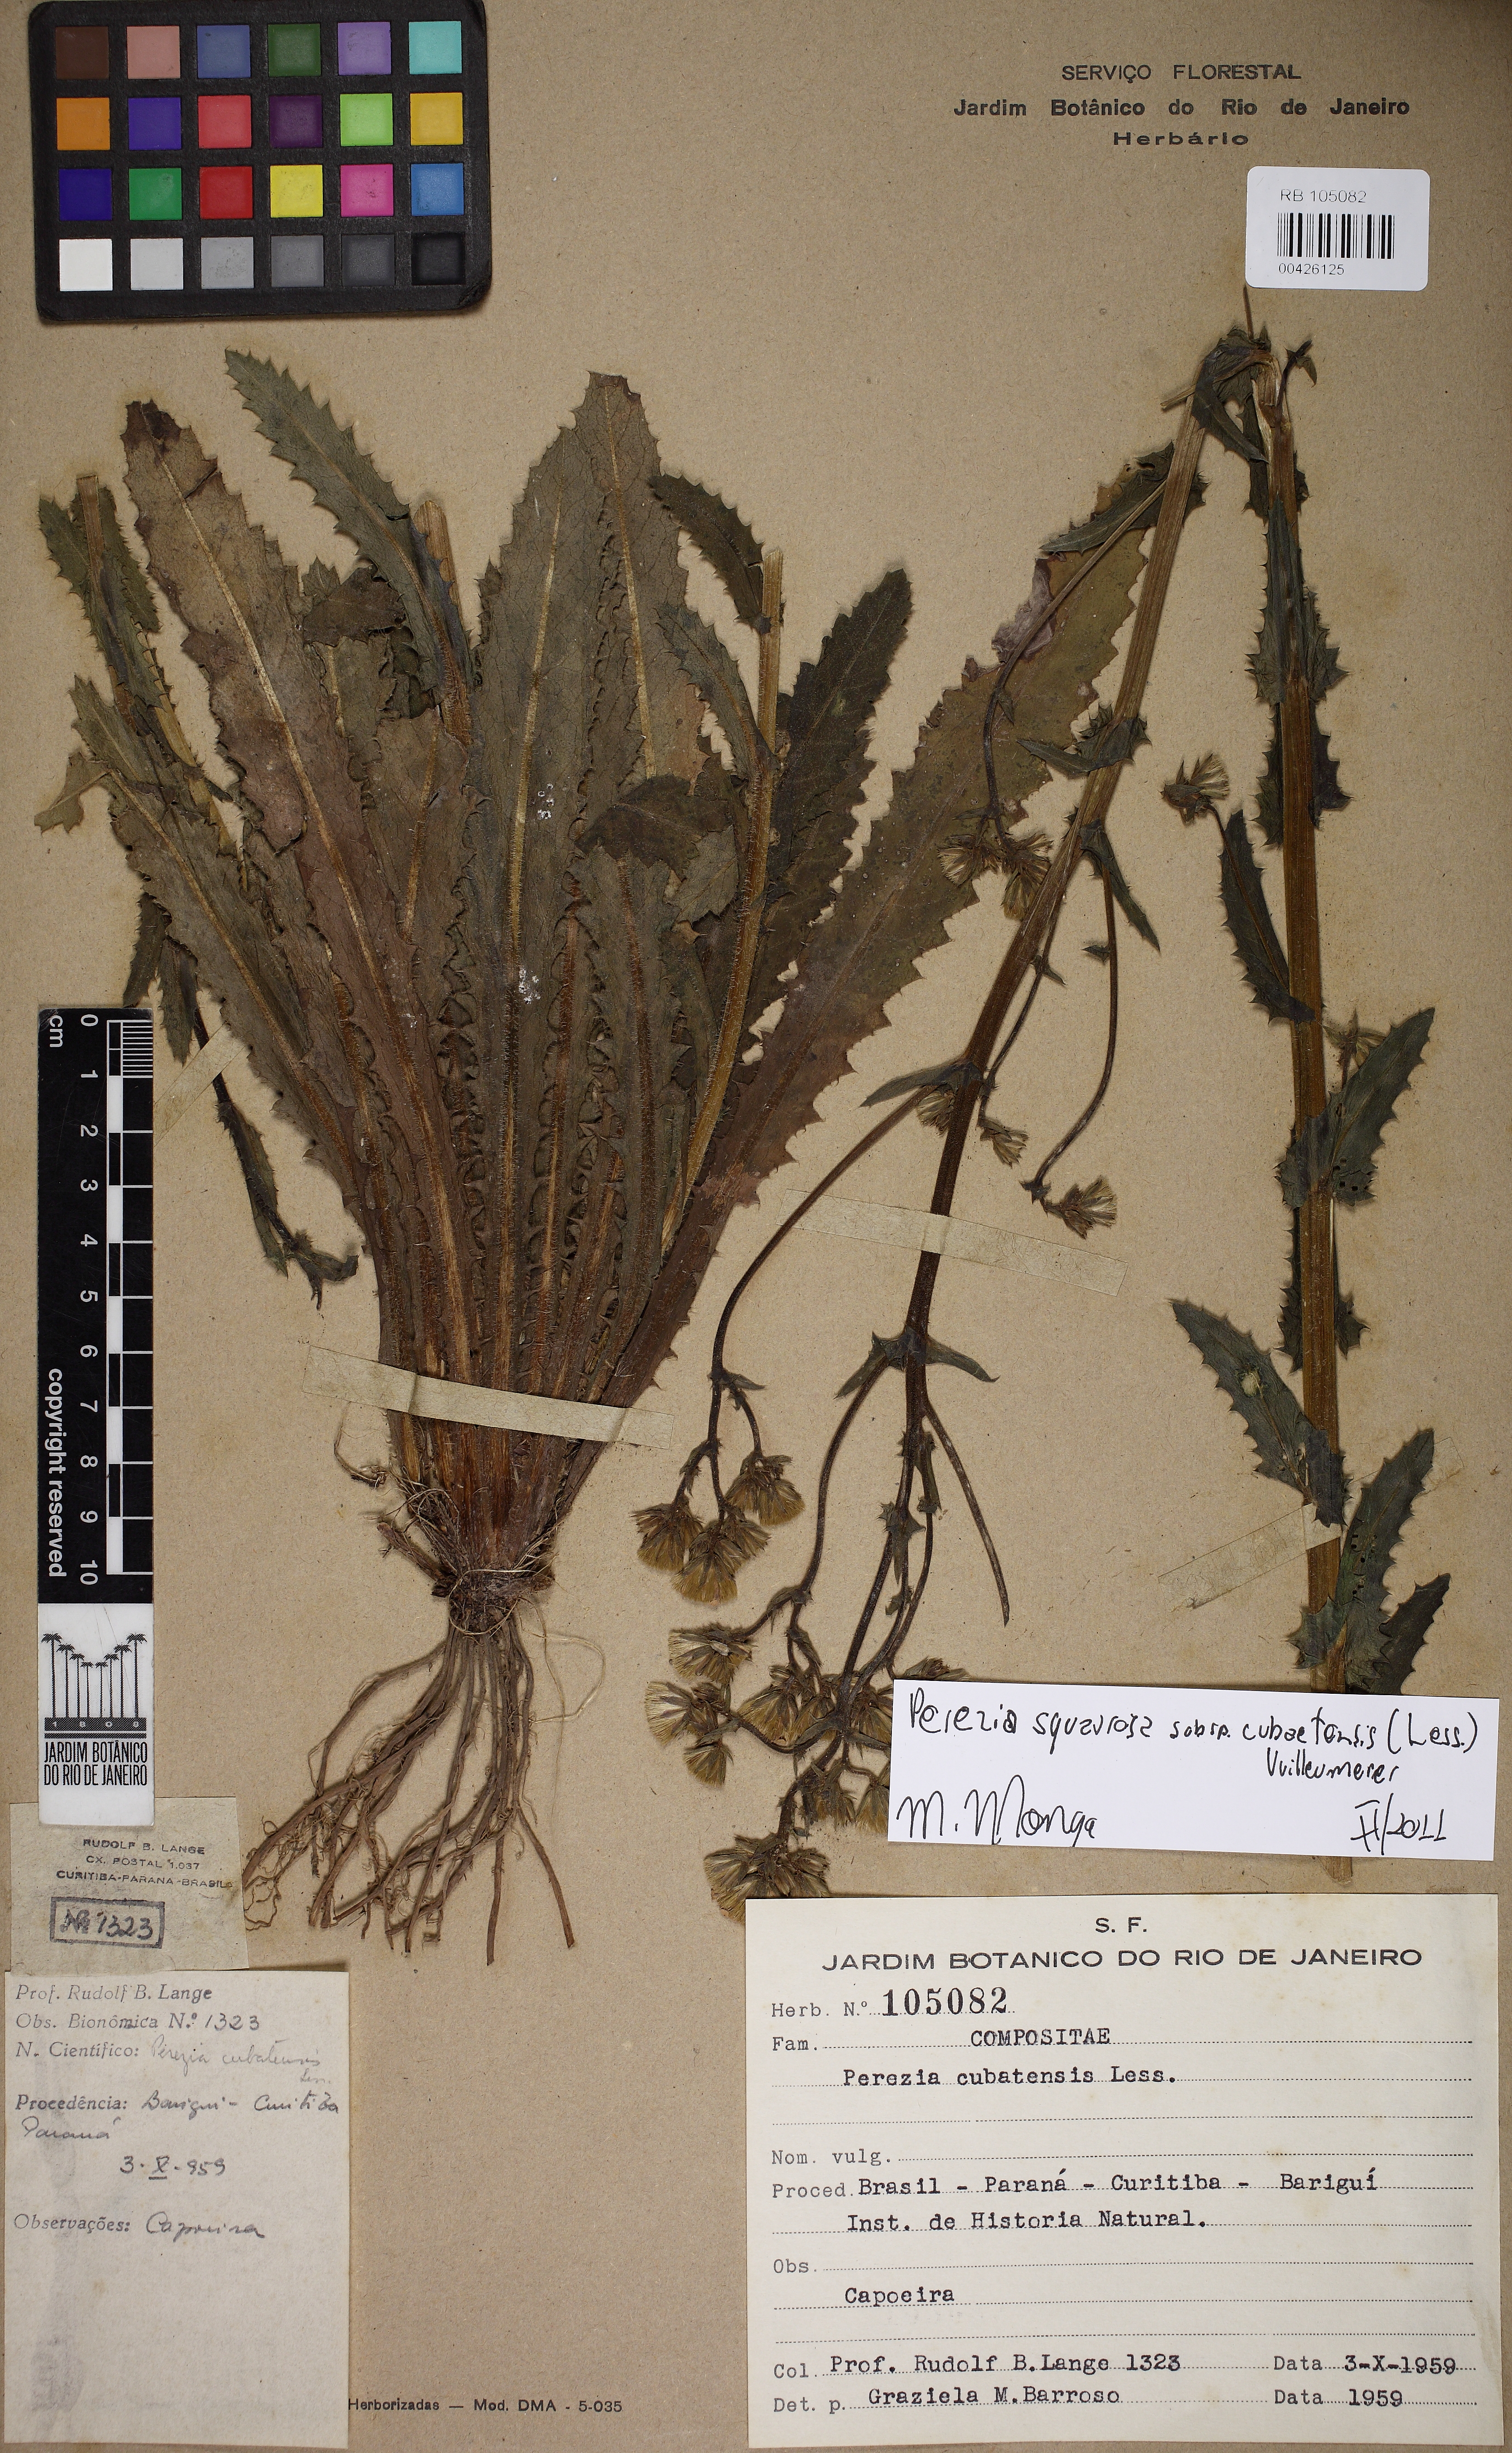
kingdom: Plantae
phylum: Tracheophyta
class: Magnoliopsida
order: Asterales
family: Asteraceae
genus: Perezia
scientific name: Perezia Homoianthus cubaetensis
